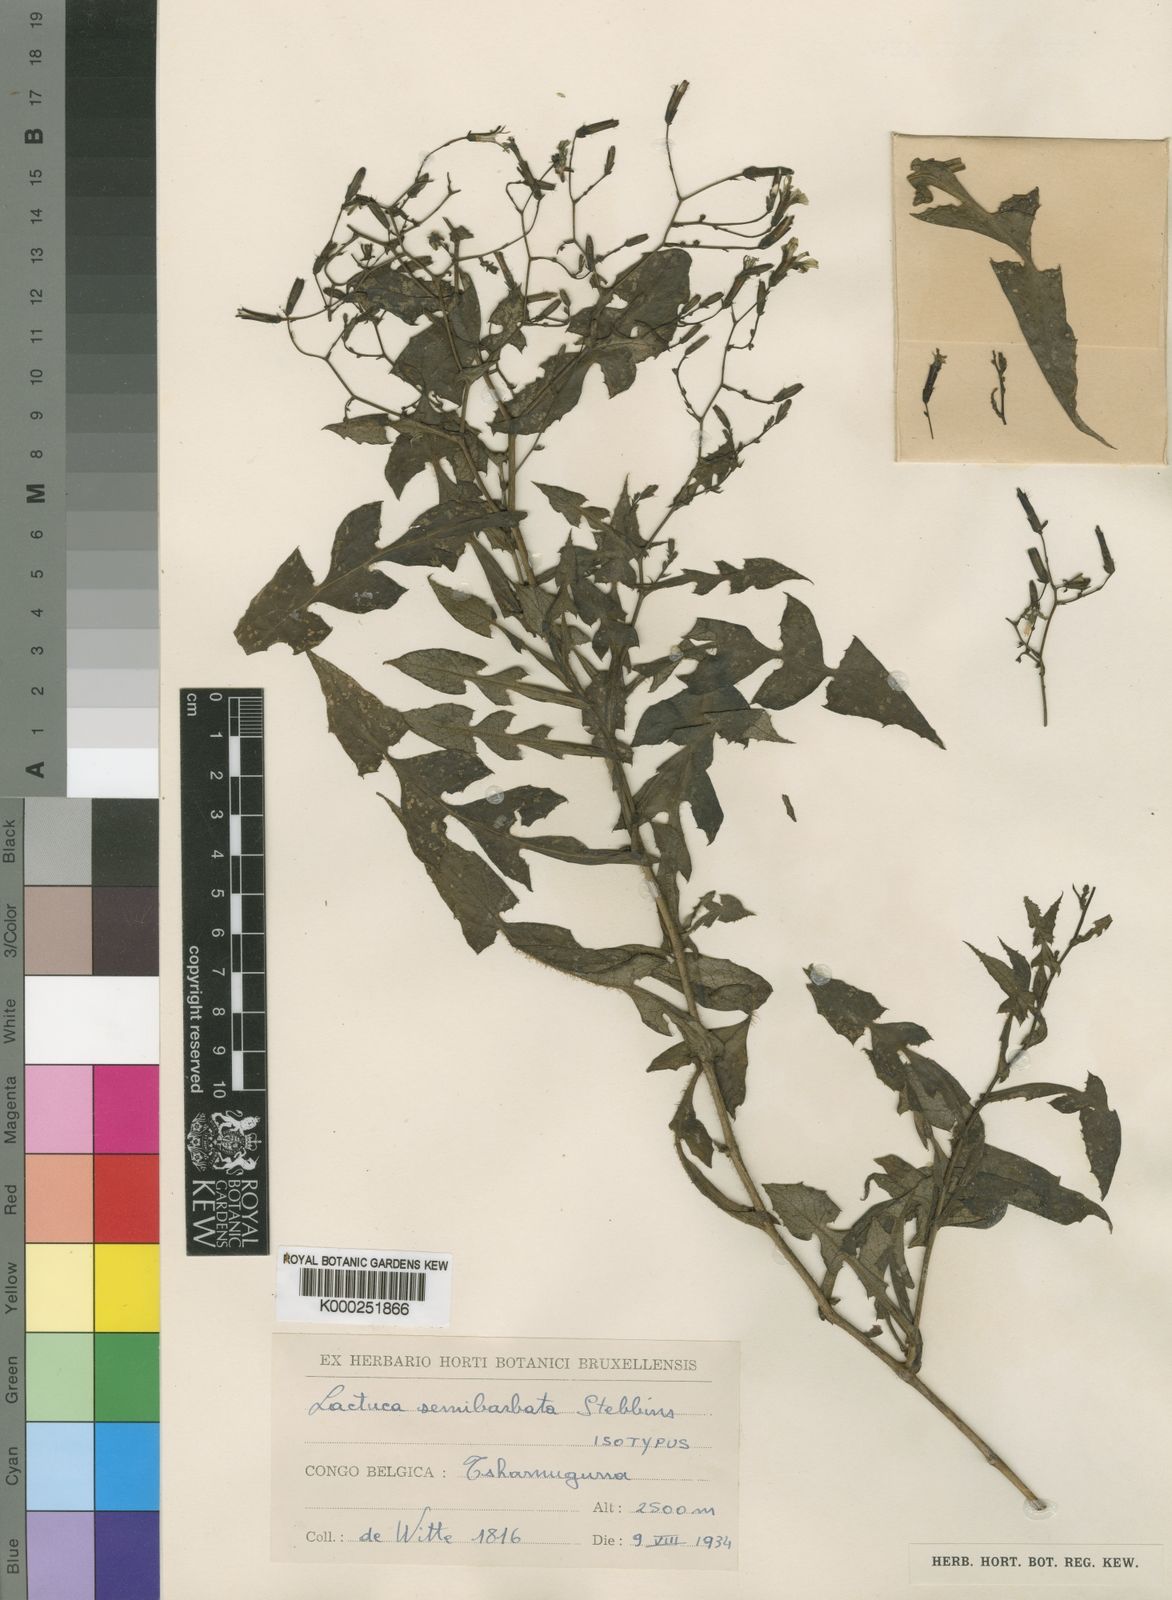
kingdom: Plantae
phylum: Tracheophyta
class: Magnoliopsida
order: Asterales
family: Asteraceae
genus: Lactuca
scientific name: Lactuca
